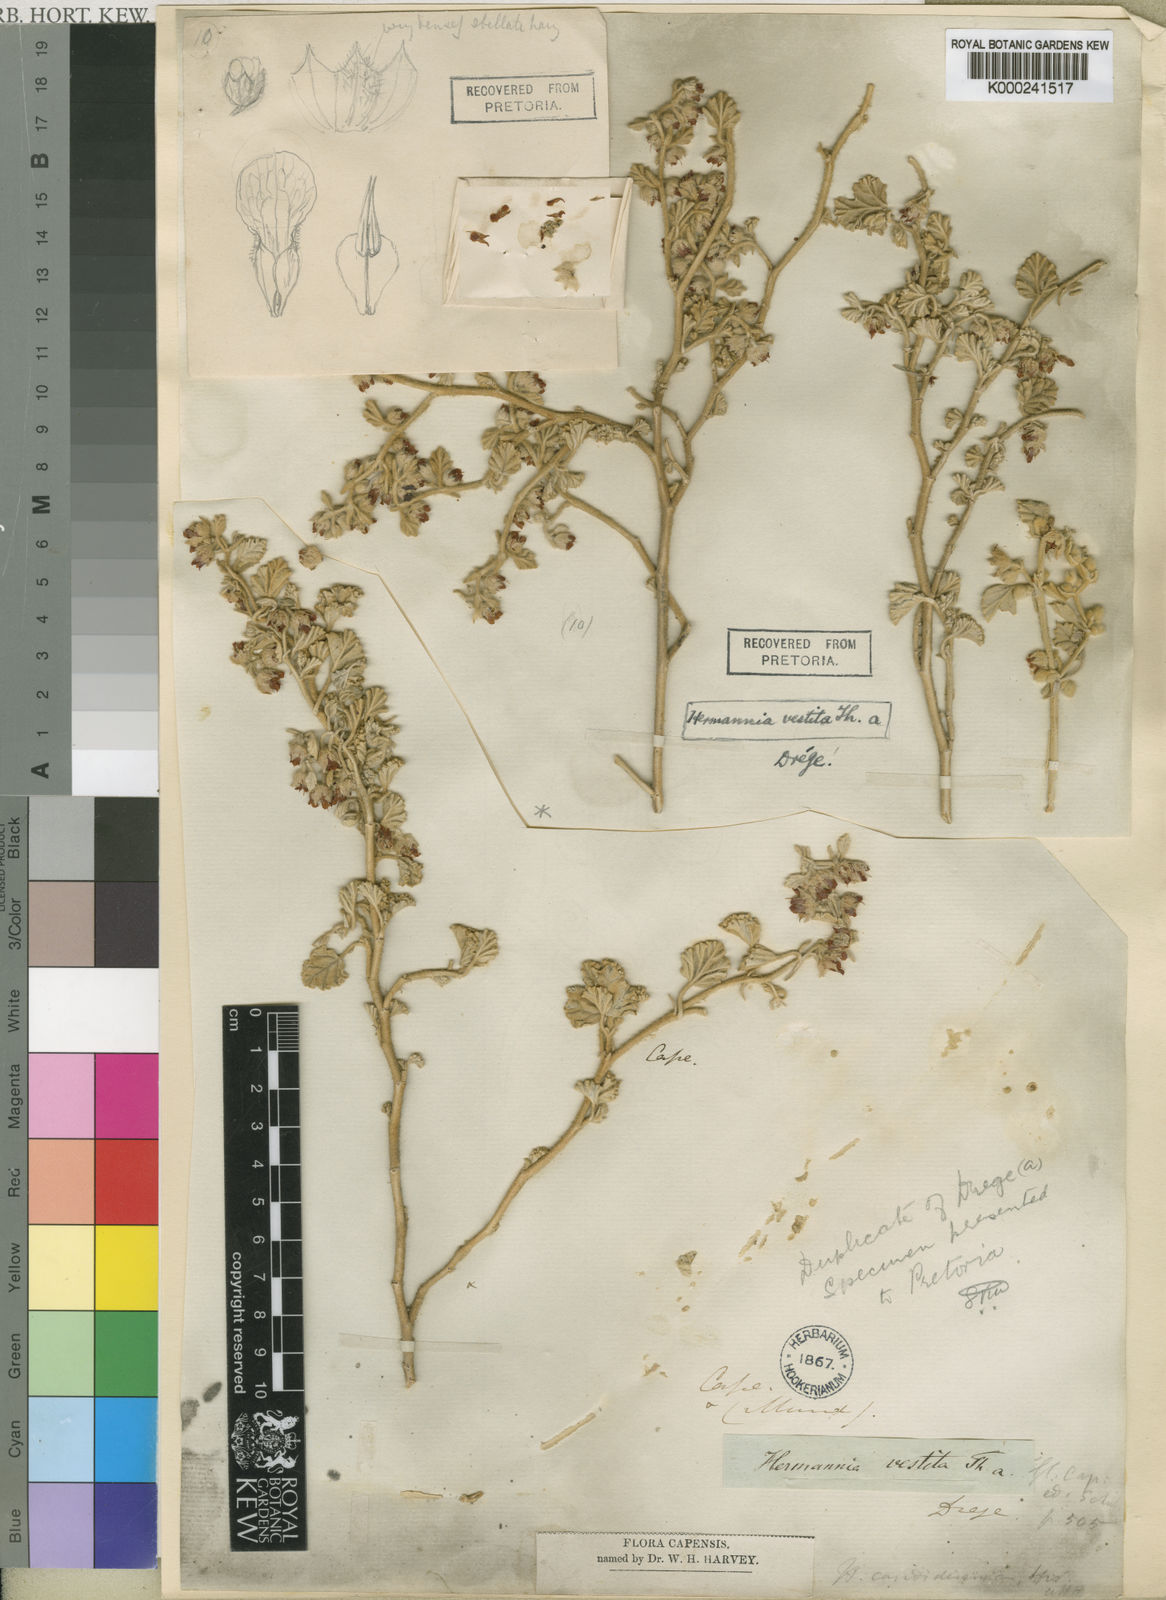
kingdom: Plantae
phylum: Tracheophyta
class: Magnoliopsida
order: Malvales
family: Malvaceae
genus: Hermannia
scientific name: Hermannia vestita
